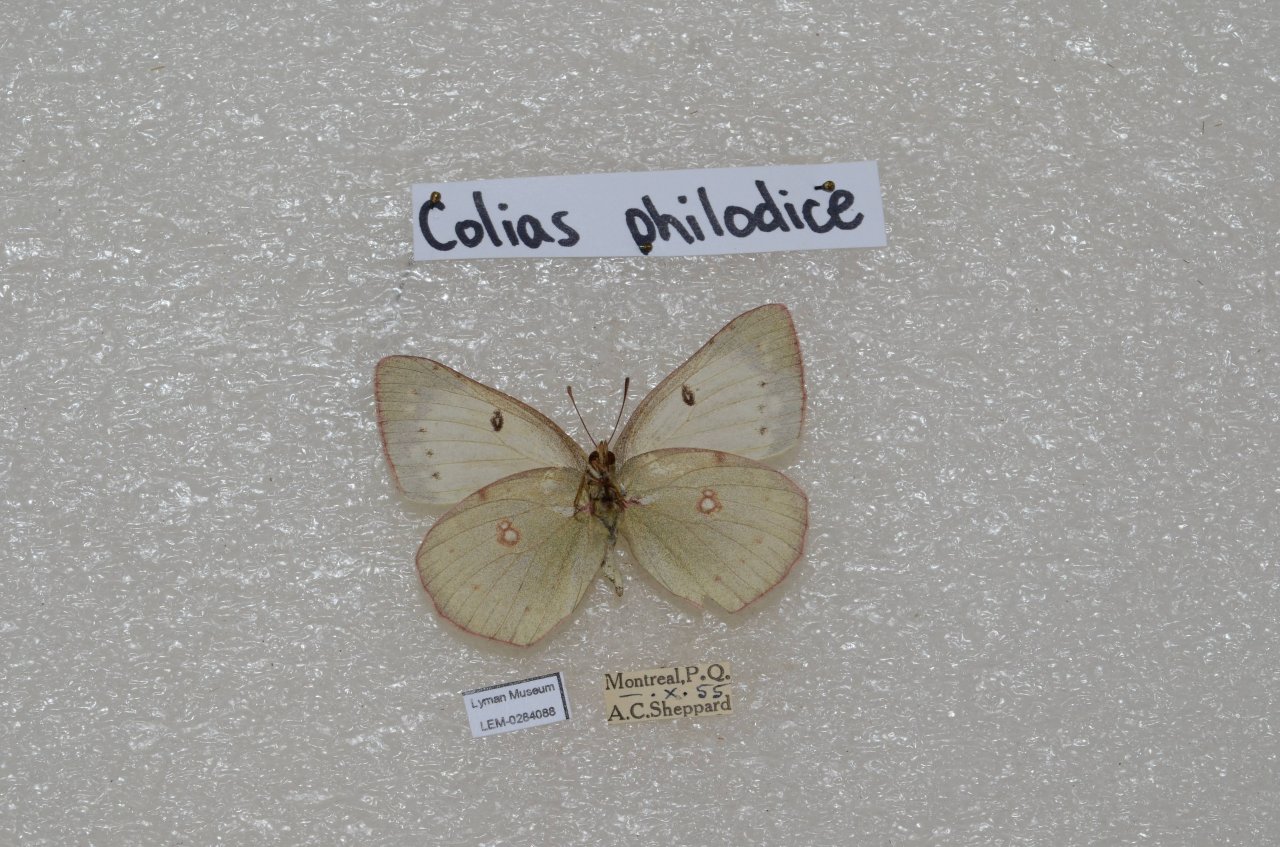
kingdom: Animalia
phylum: Arthropoda
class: Insecta
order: Lepidoptera
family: Pieridae
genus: Colias
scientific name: Colias philodice
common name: Clouded Sulphur
